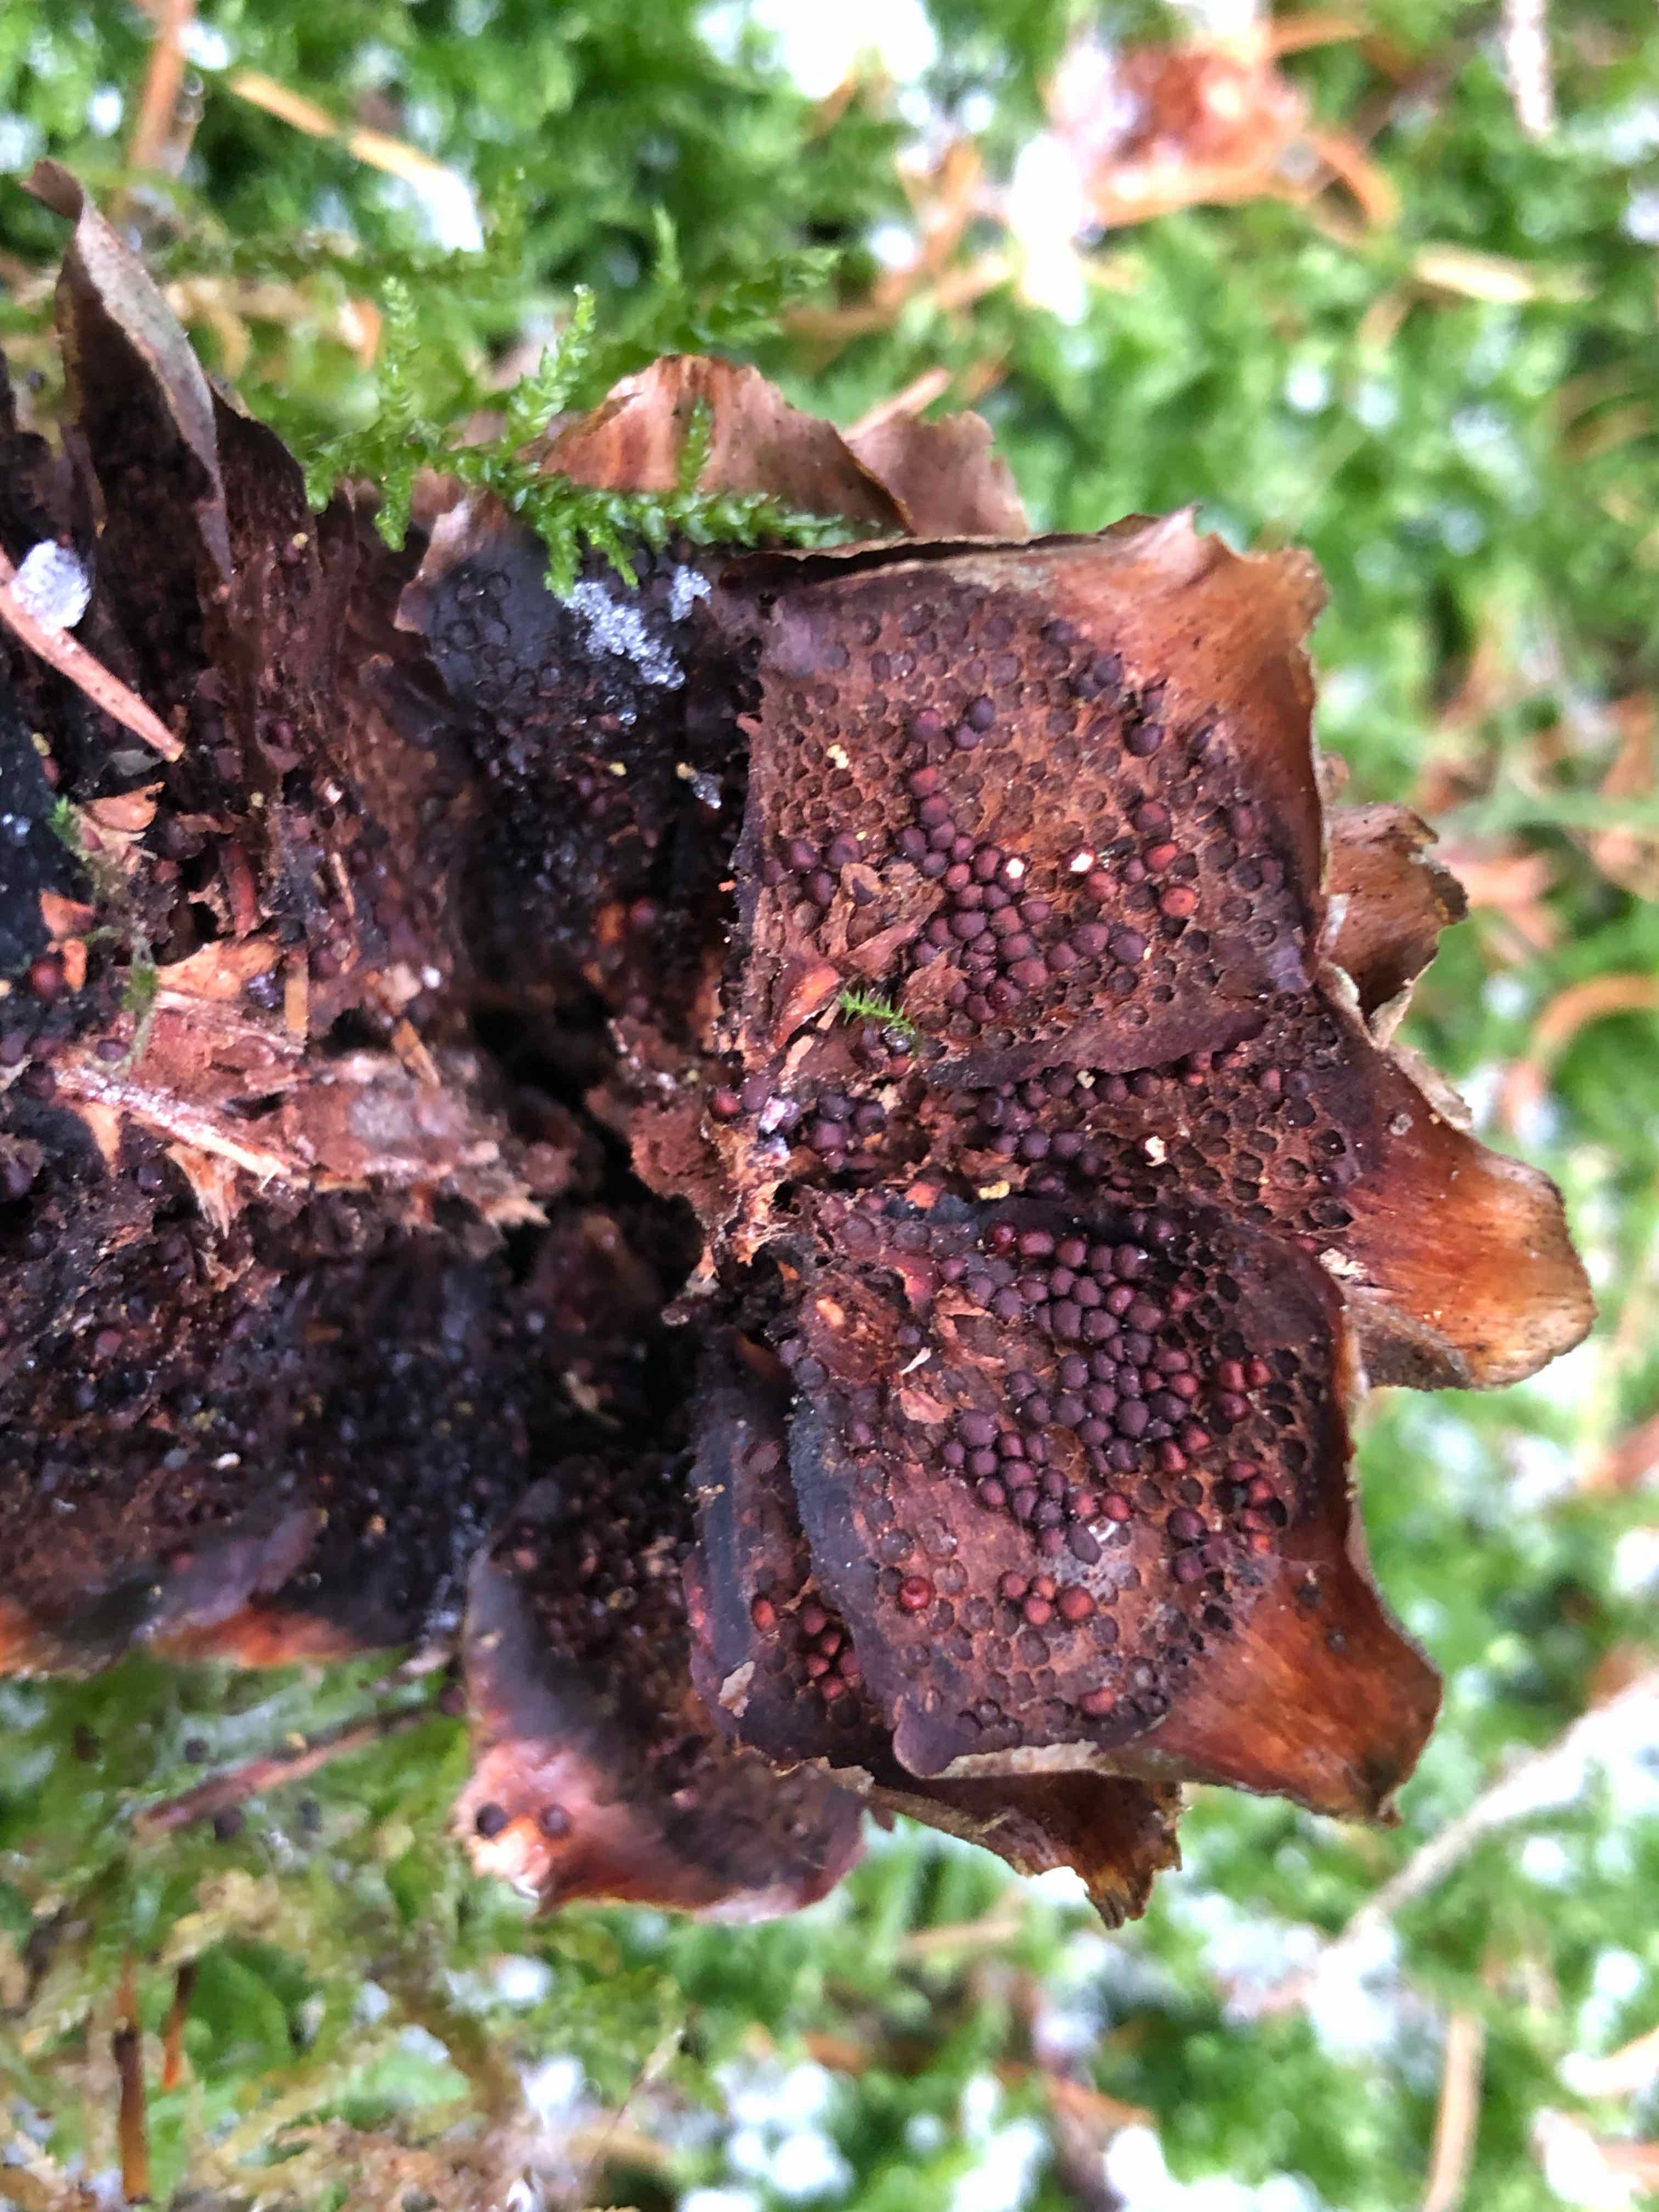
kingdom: Fungi
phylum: Basidiomycota
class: Pucciniomycetes
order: Pucciniales
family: Pucciniastraceae
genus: Thekopsora
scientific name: Thekopsora areolata
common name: grankogle-nålerust
